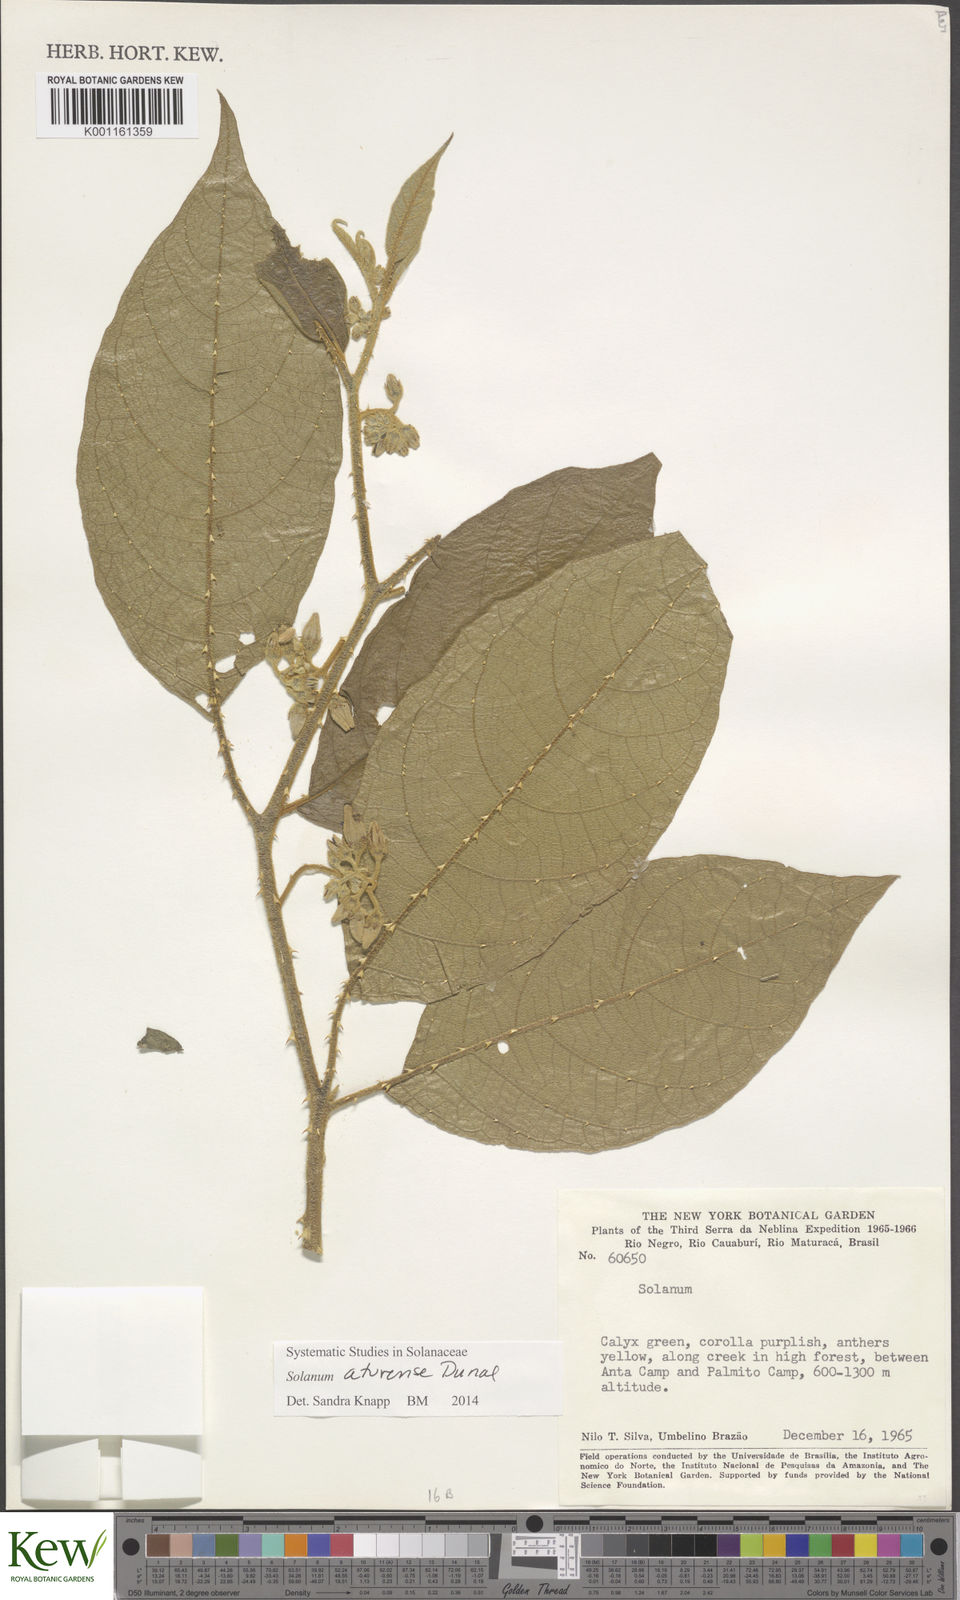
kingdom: Plantae
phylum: Tracheophyta
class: Magnoliopsida
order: Solanales
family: Solanaceae
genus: Solanum
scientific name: Solanum aturense
